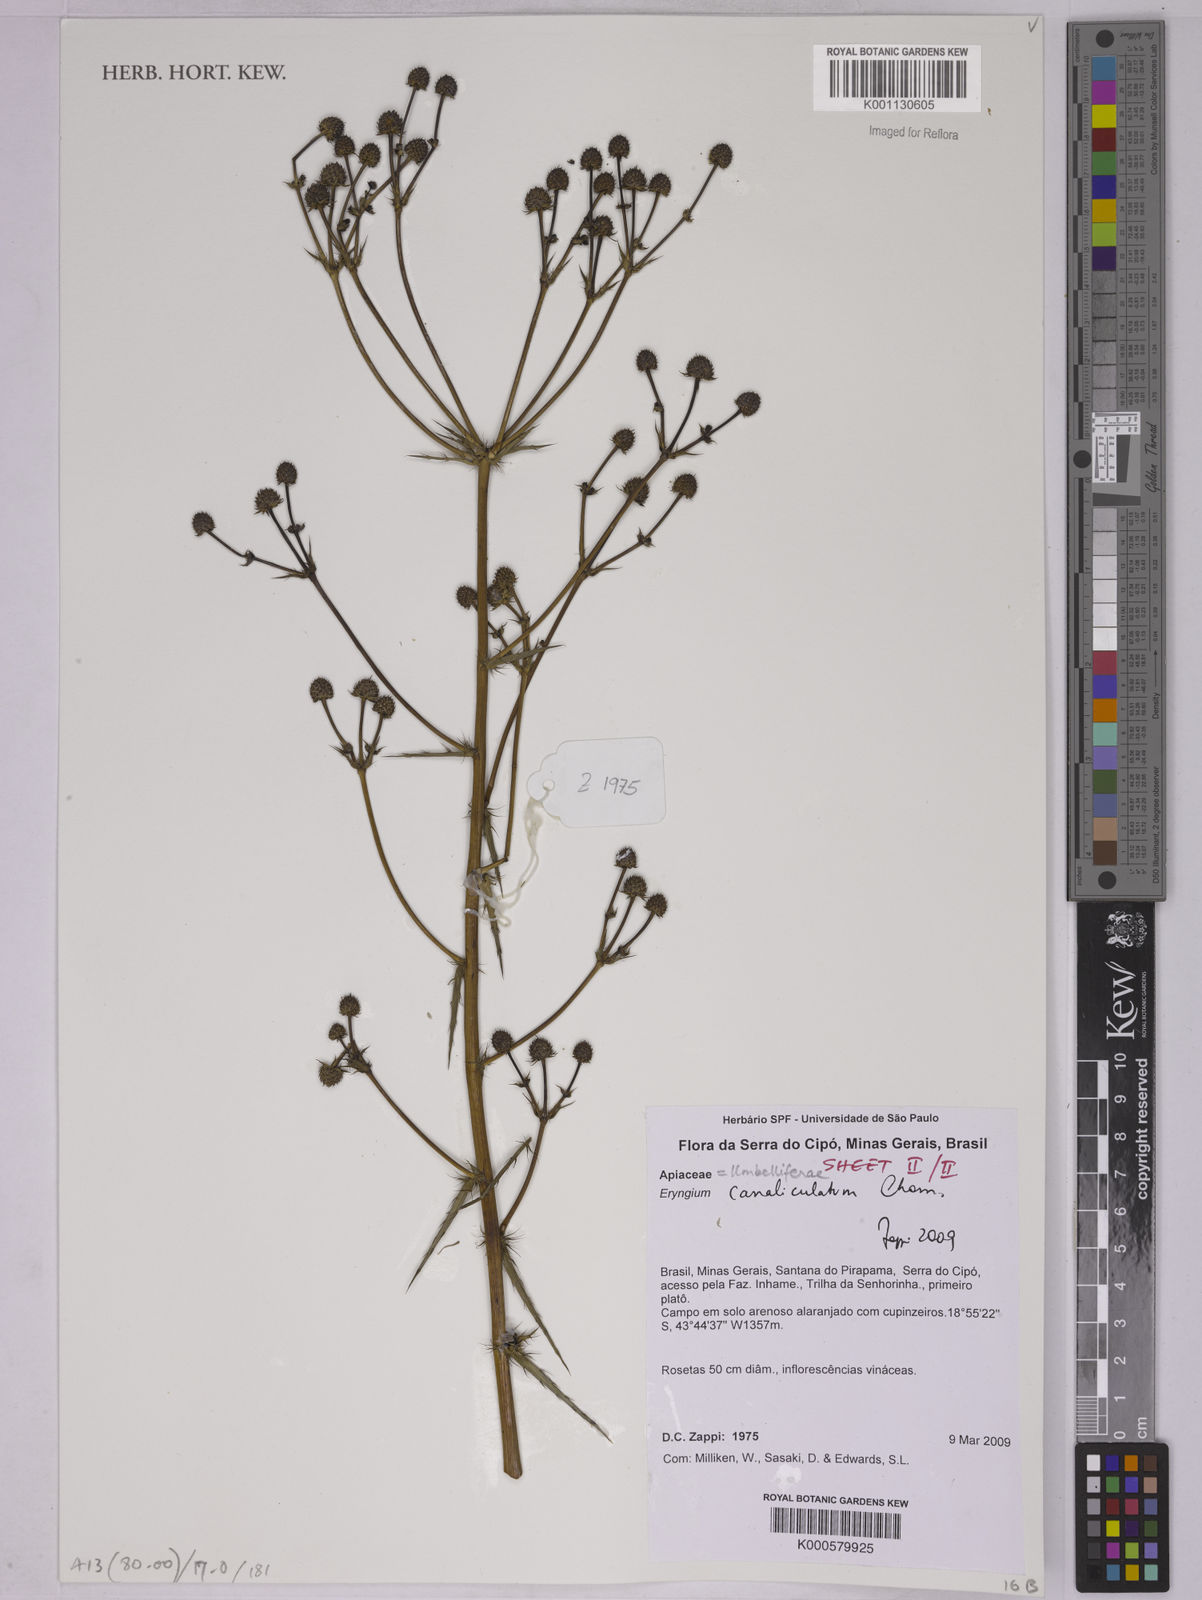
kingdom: Plantae
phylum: Tracheophyta
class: Magnoliopsida
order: Apiales
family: Apiaceae
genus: Eryngium
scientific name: Eryngium canaliculatum
